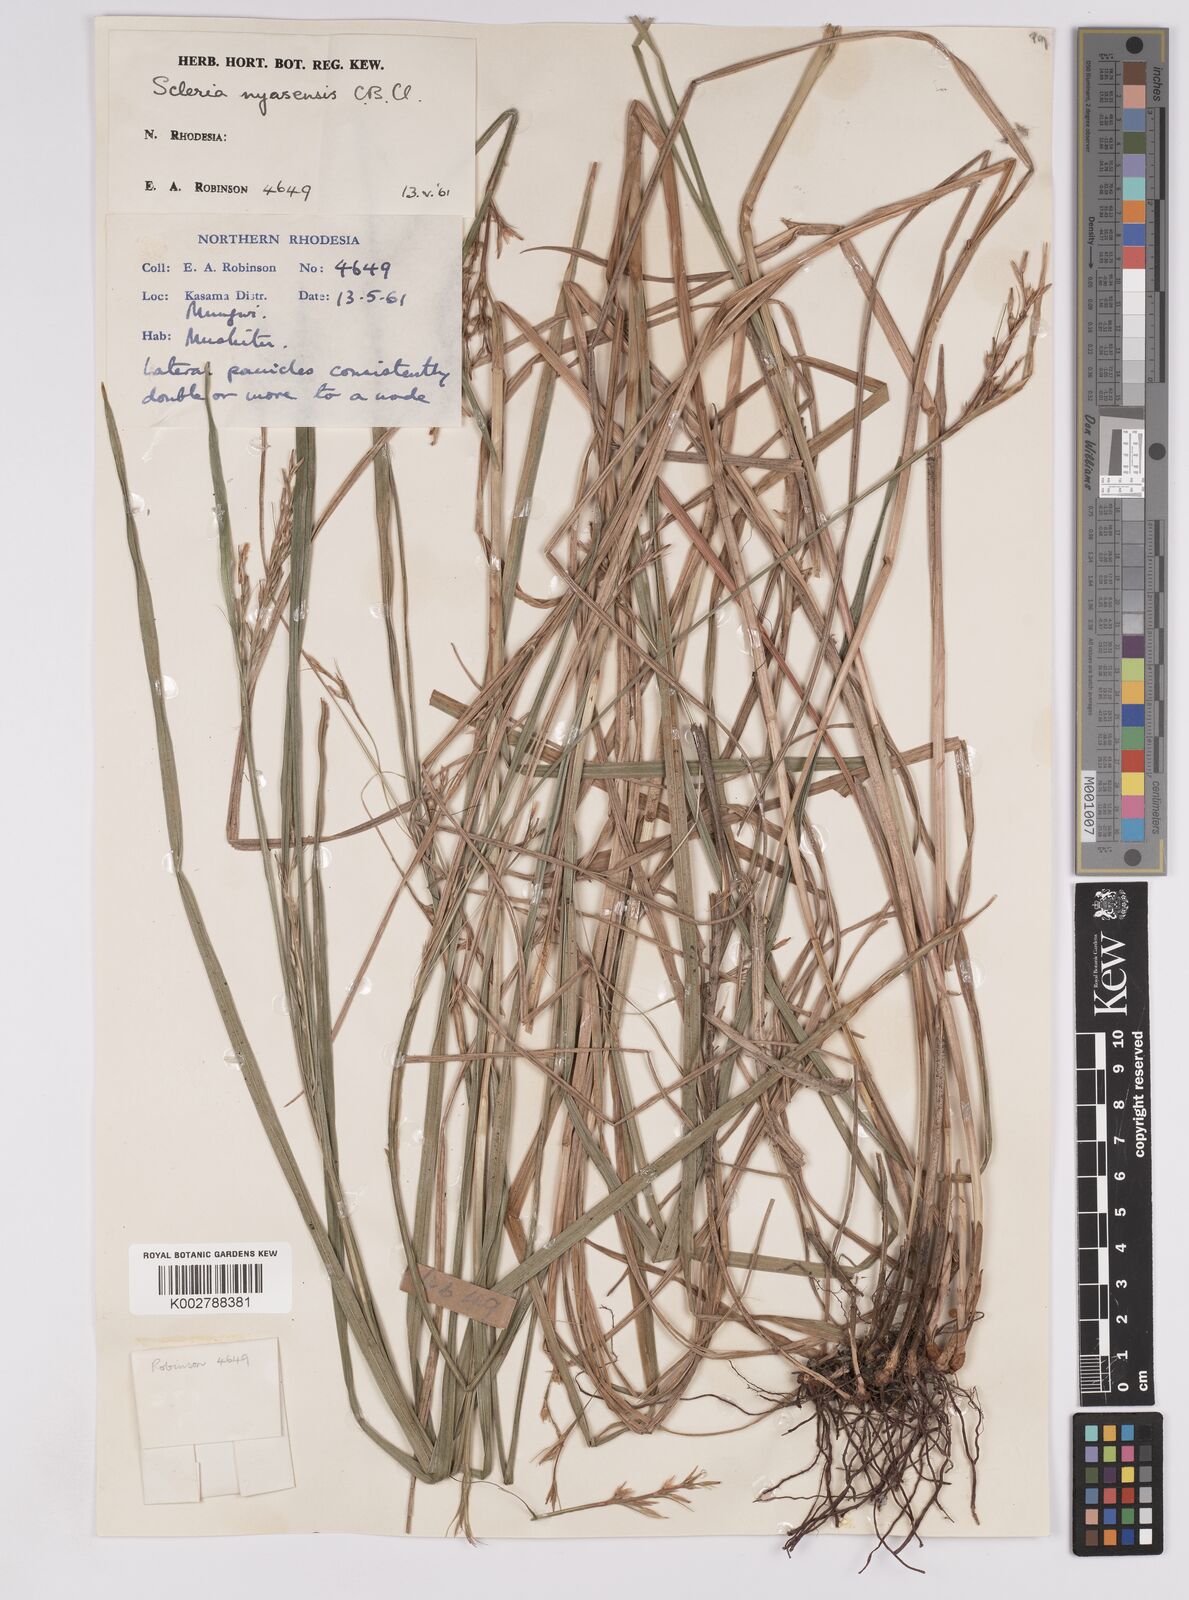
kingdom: Plantae
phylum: Tracheophyta
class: Liliopsida
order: Poales
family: Cyperaceae
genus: Scleria
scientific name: Scleria nyasensis
